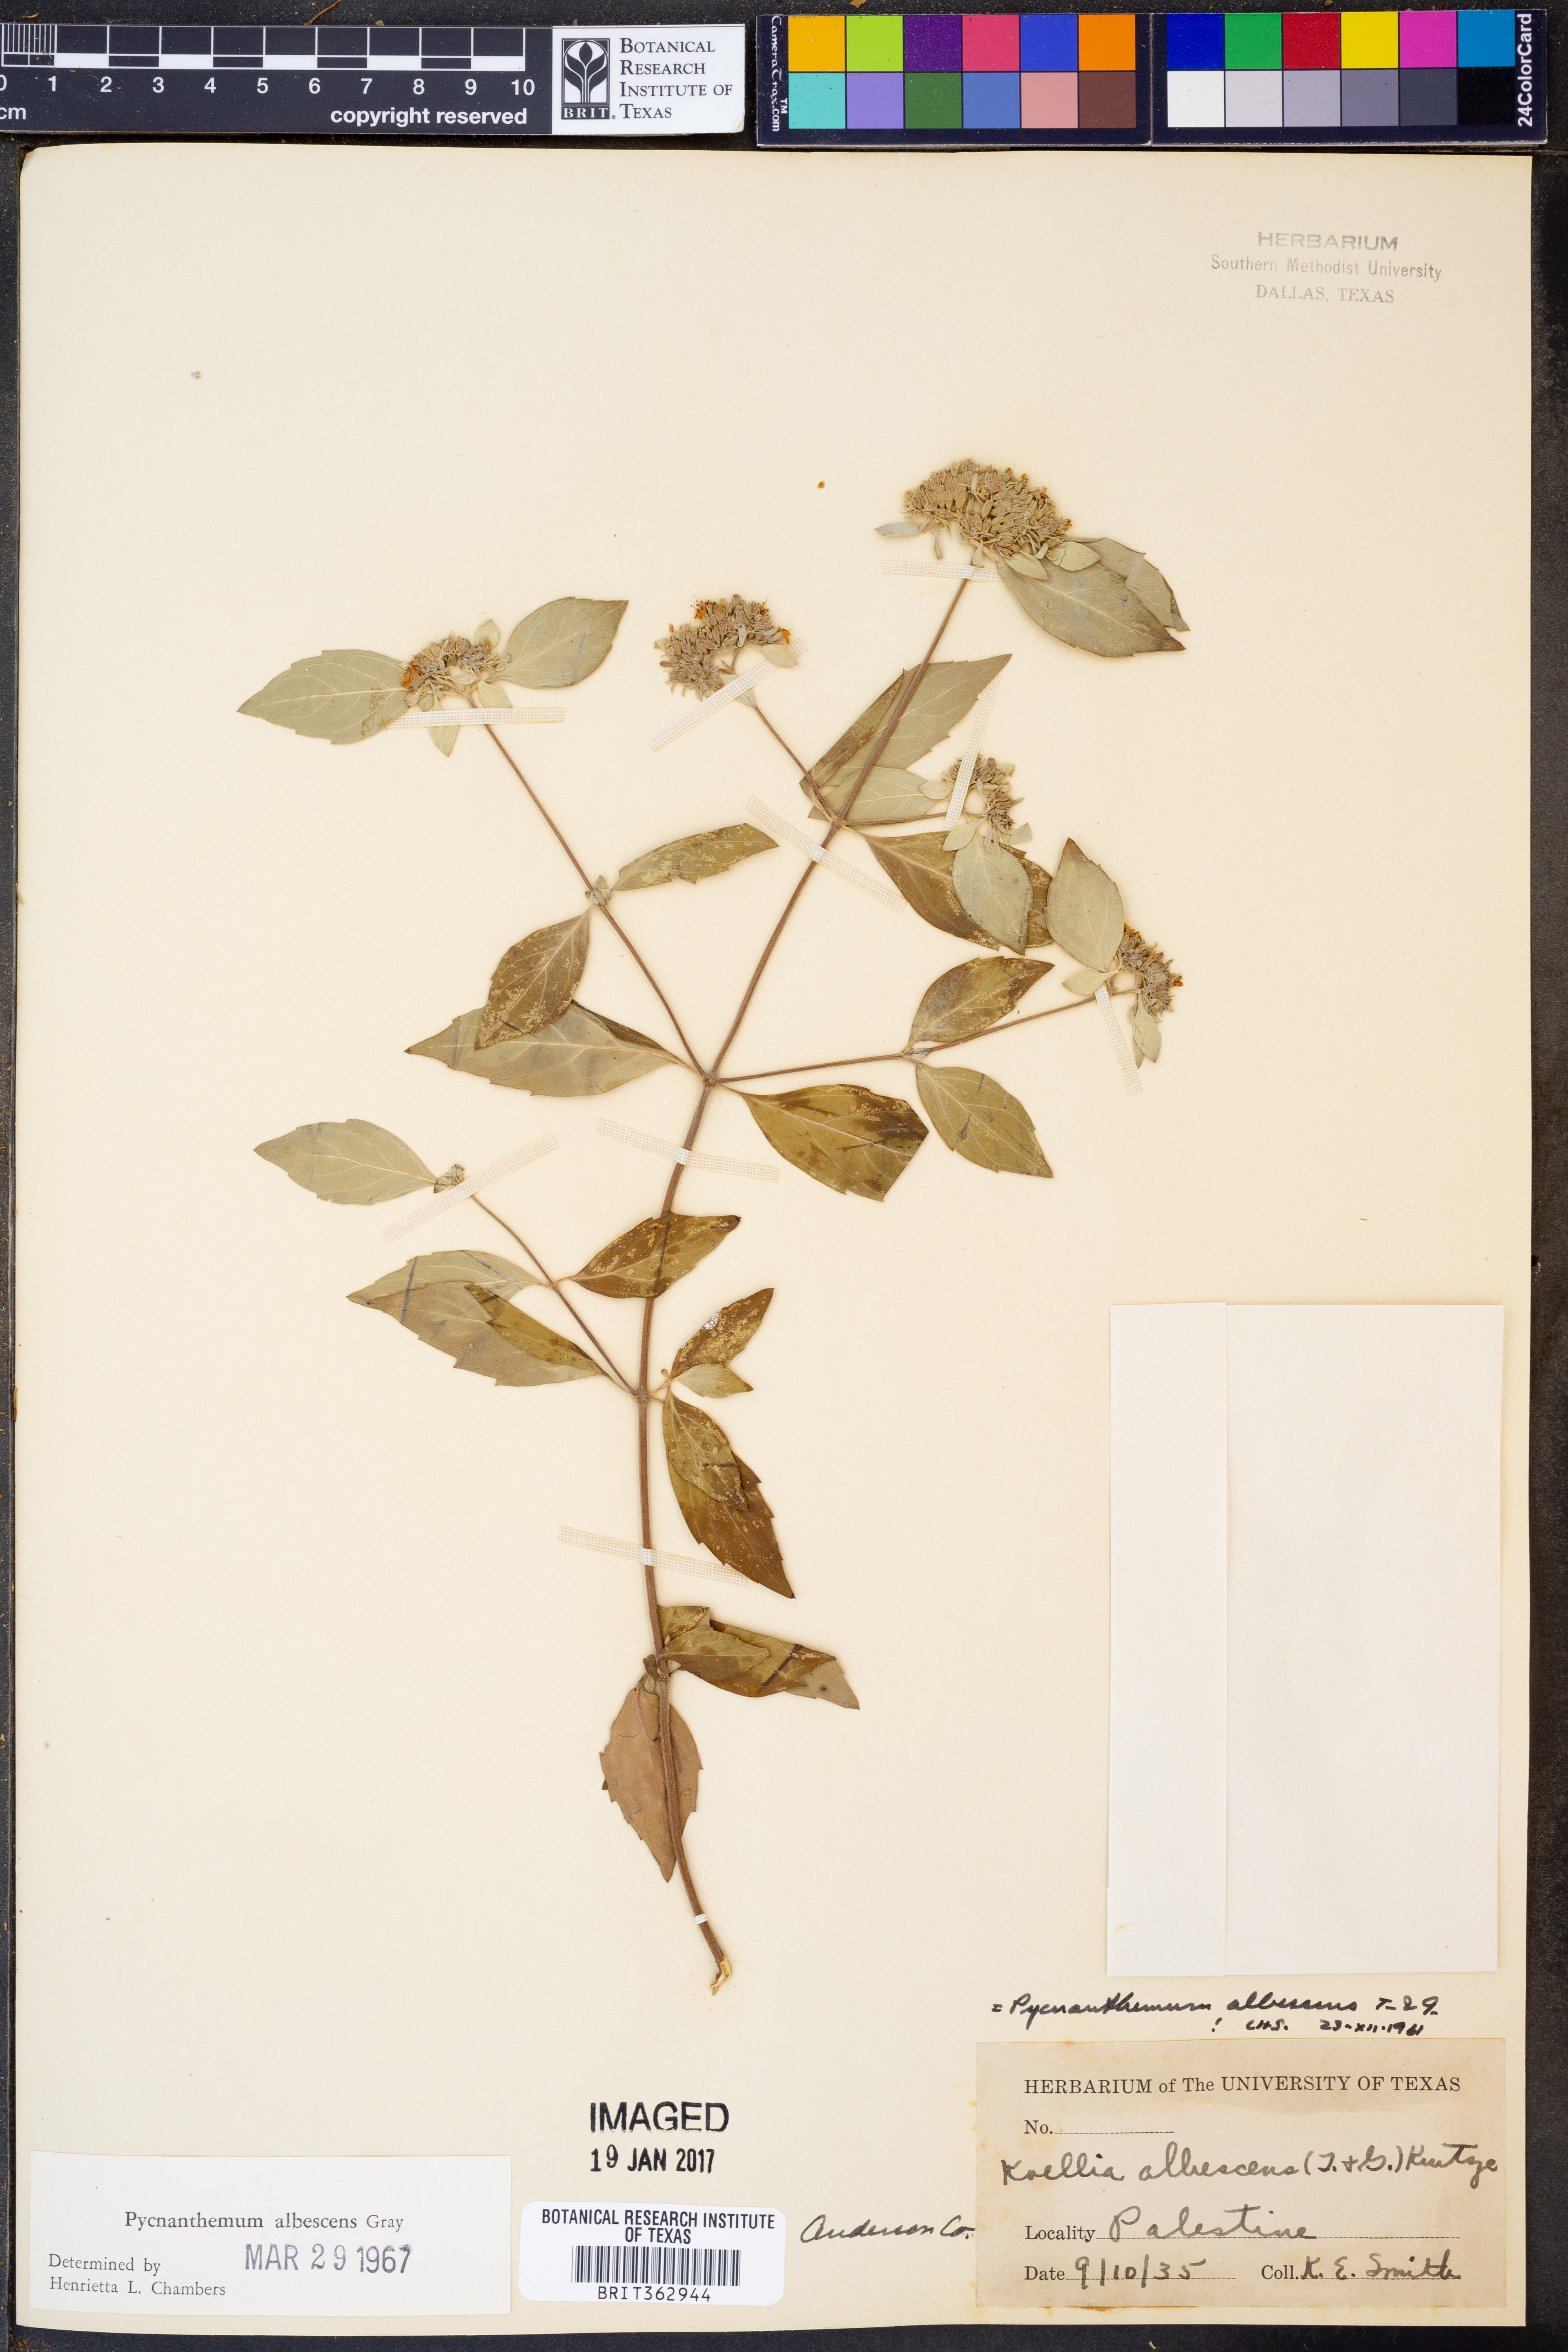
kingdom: Plantae
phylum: Tracheophyta
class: Magnoliopsida
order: Lamiales
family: Lamiaceae
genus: Pycnanthemum
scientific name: Pycnanthemum albescens
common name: White-leaf mountain-mint
